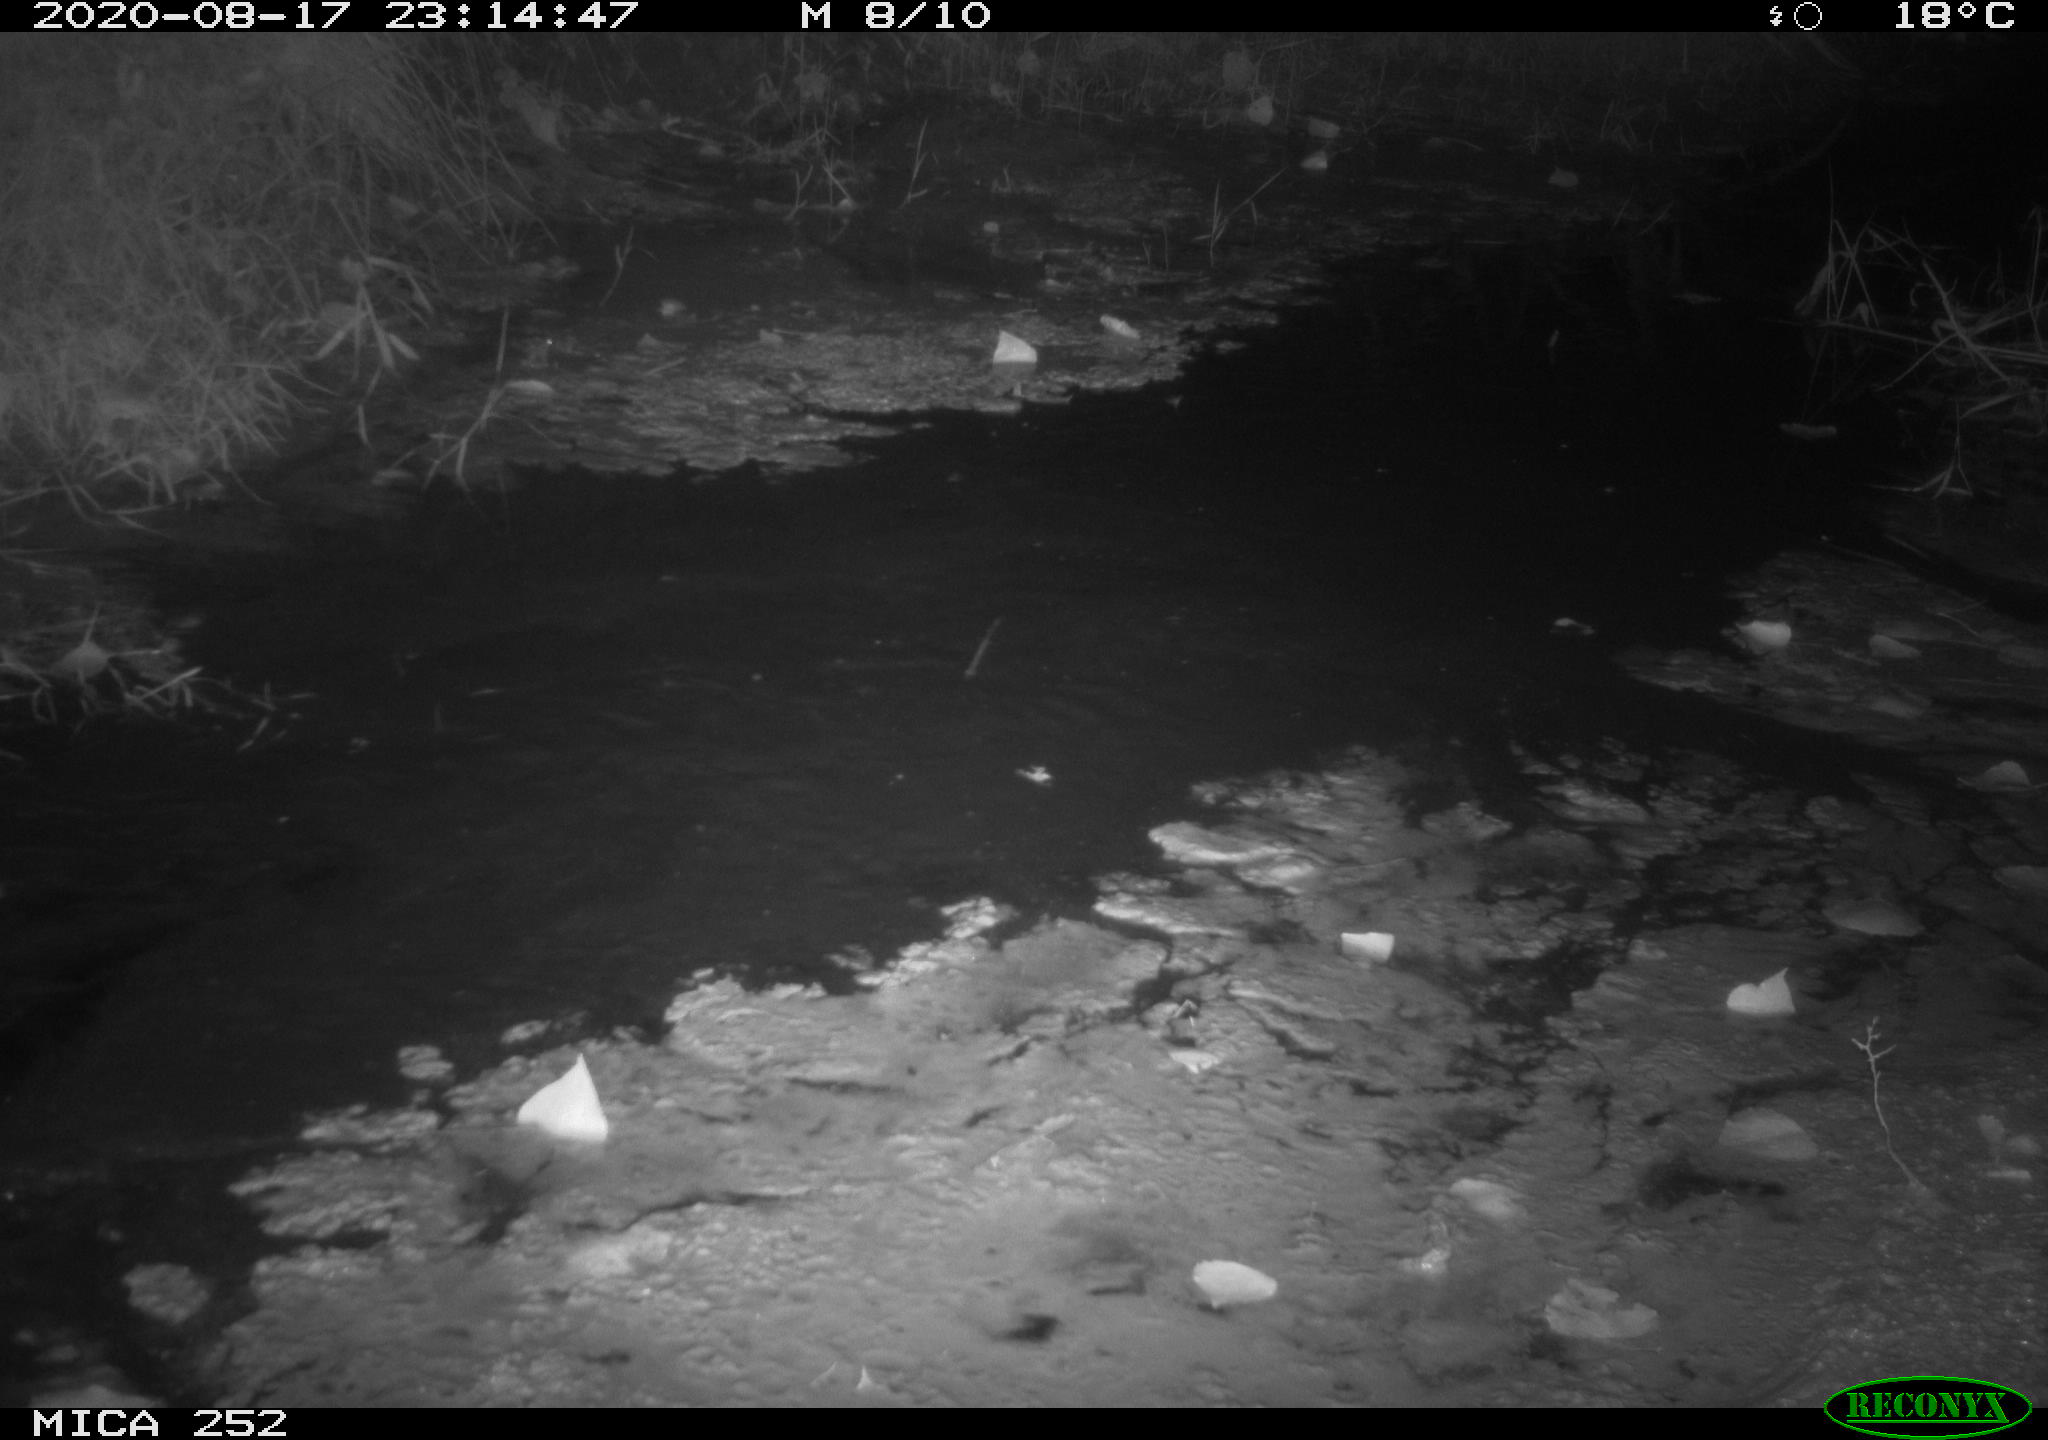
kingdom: Animalia
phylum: Chordata
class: Mammalia
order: Rodentia
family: Castoridae
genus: Castor
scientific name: Castor fiber
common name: Eurasian beaver
